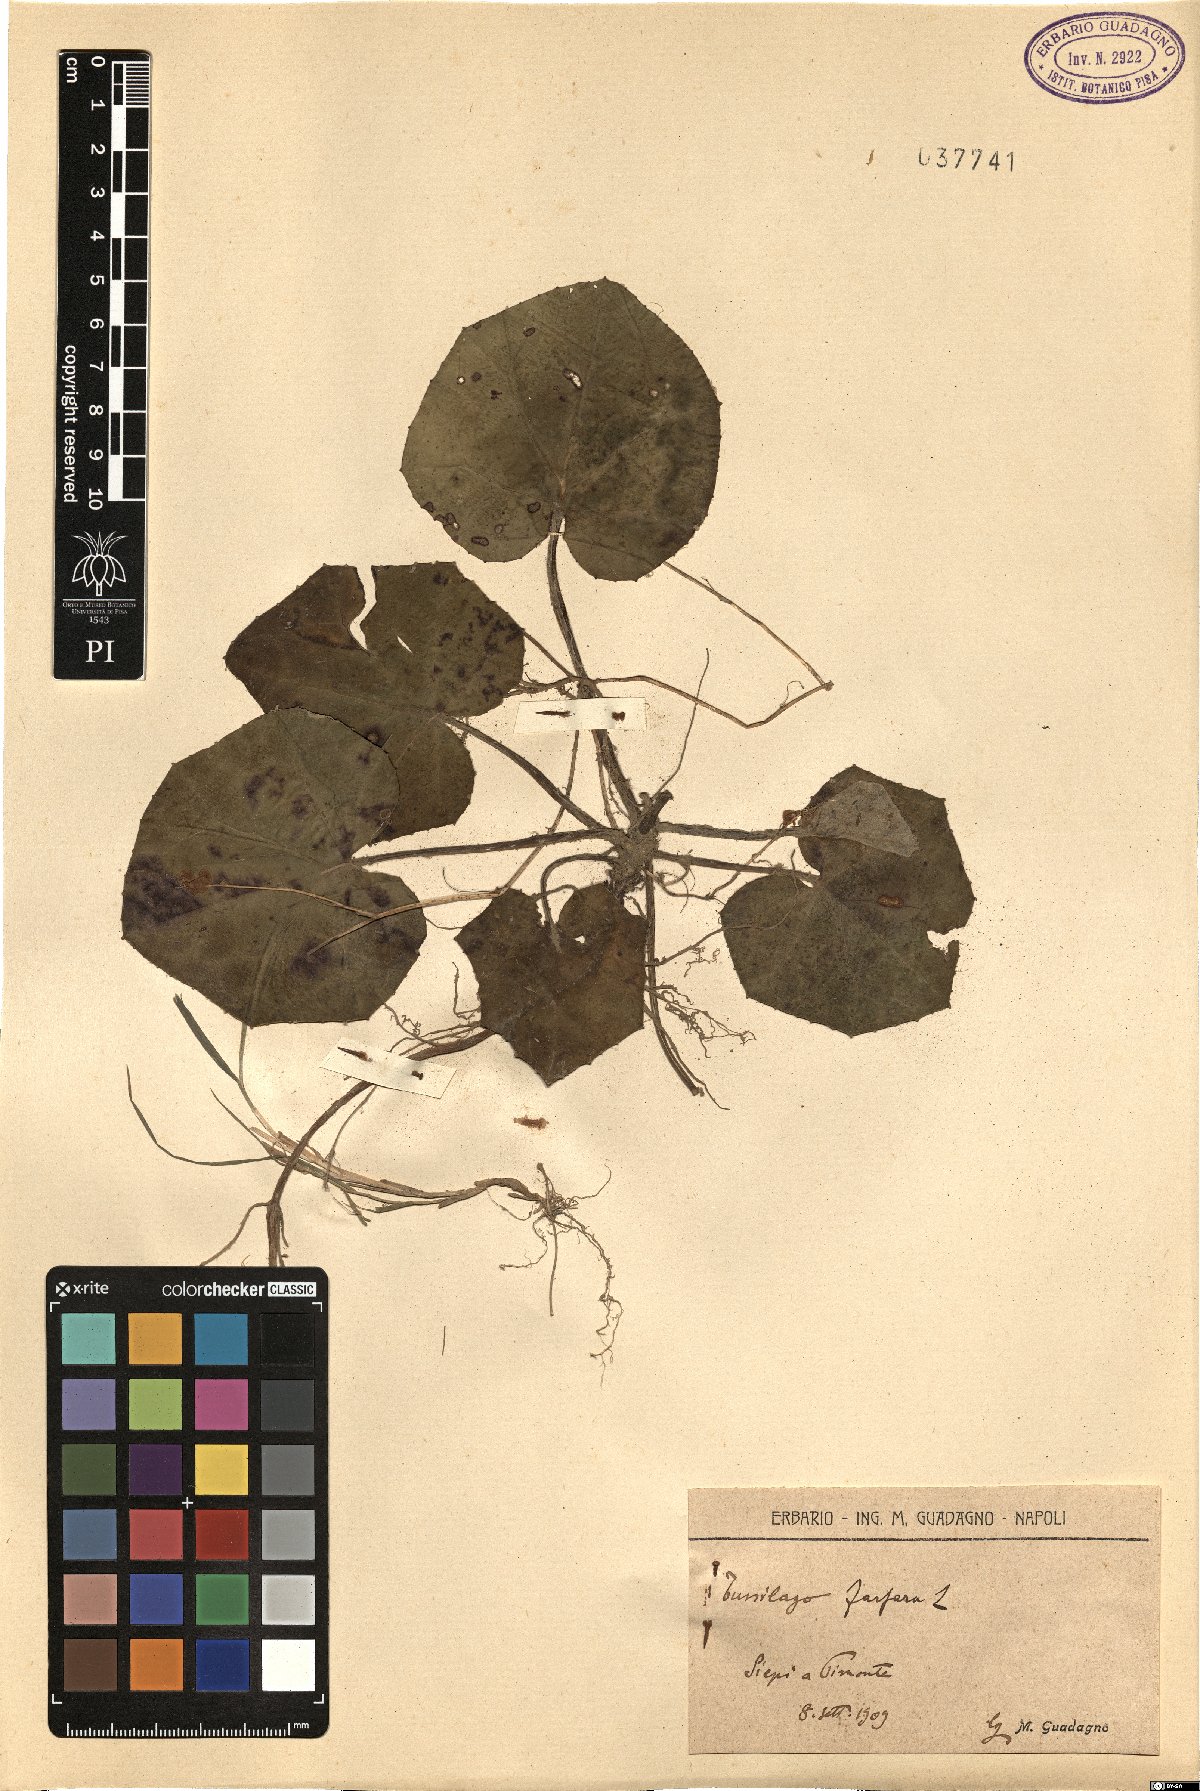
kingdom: Plantae
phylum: Tracheophyta
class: Magnoliopsida
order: Asterales
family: Asteraceae
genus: Tussilago
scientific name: Tussilago farfara
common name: Coltsfoot
